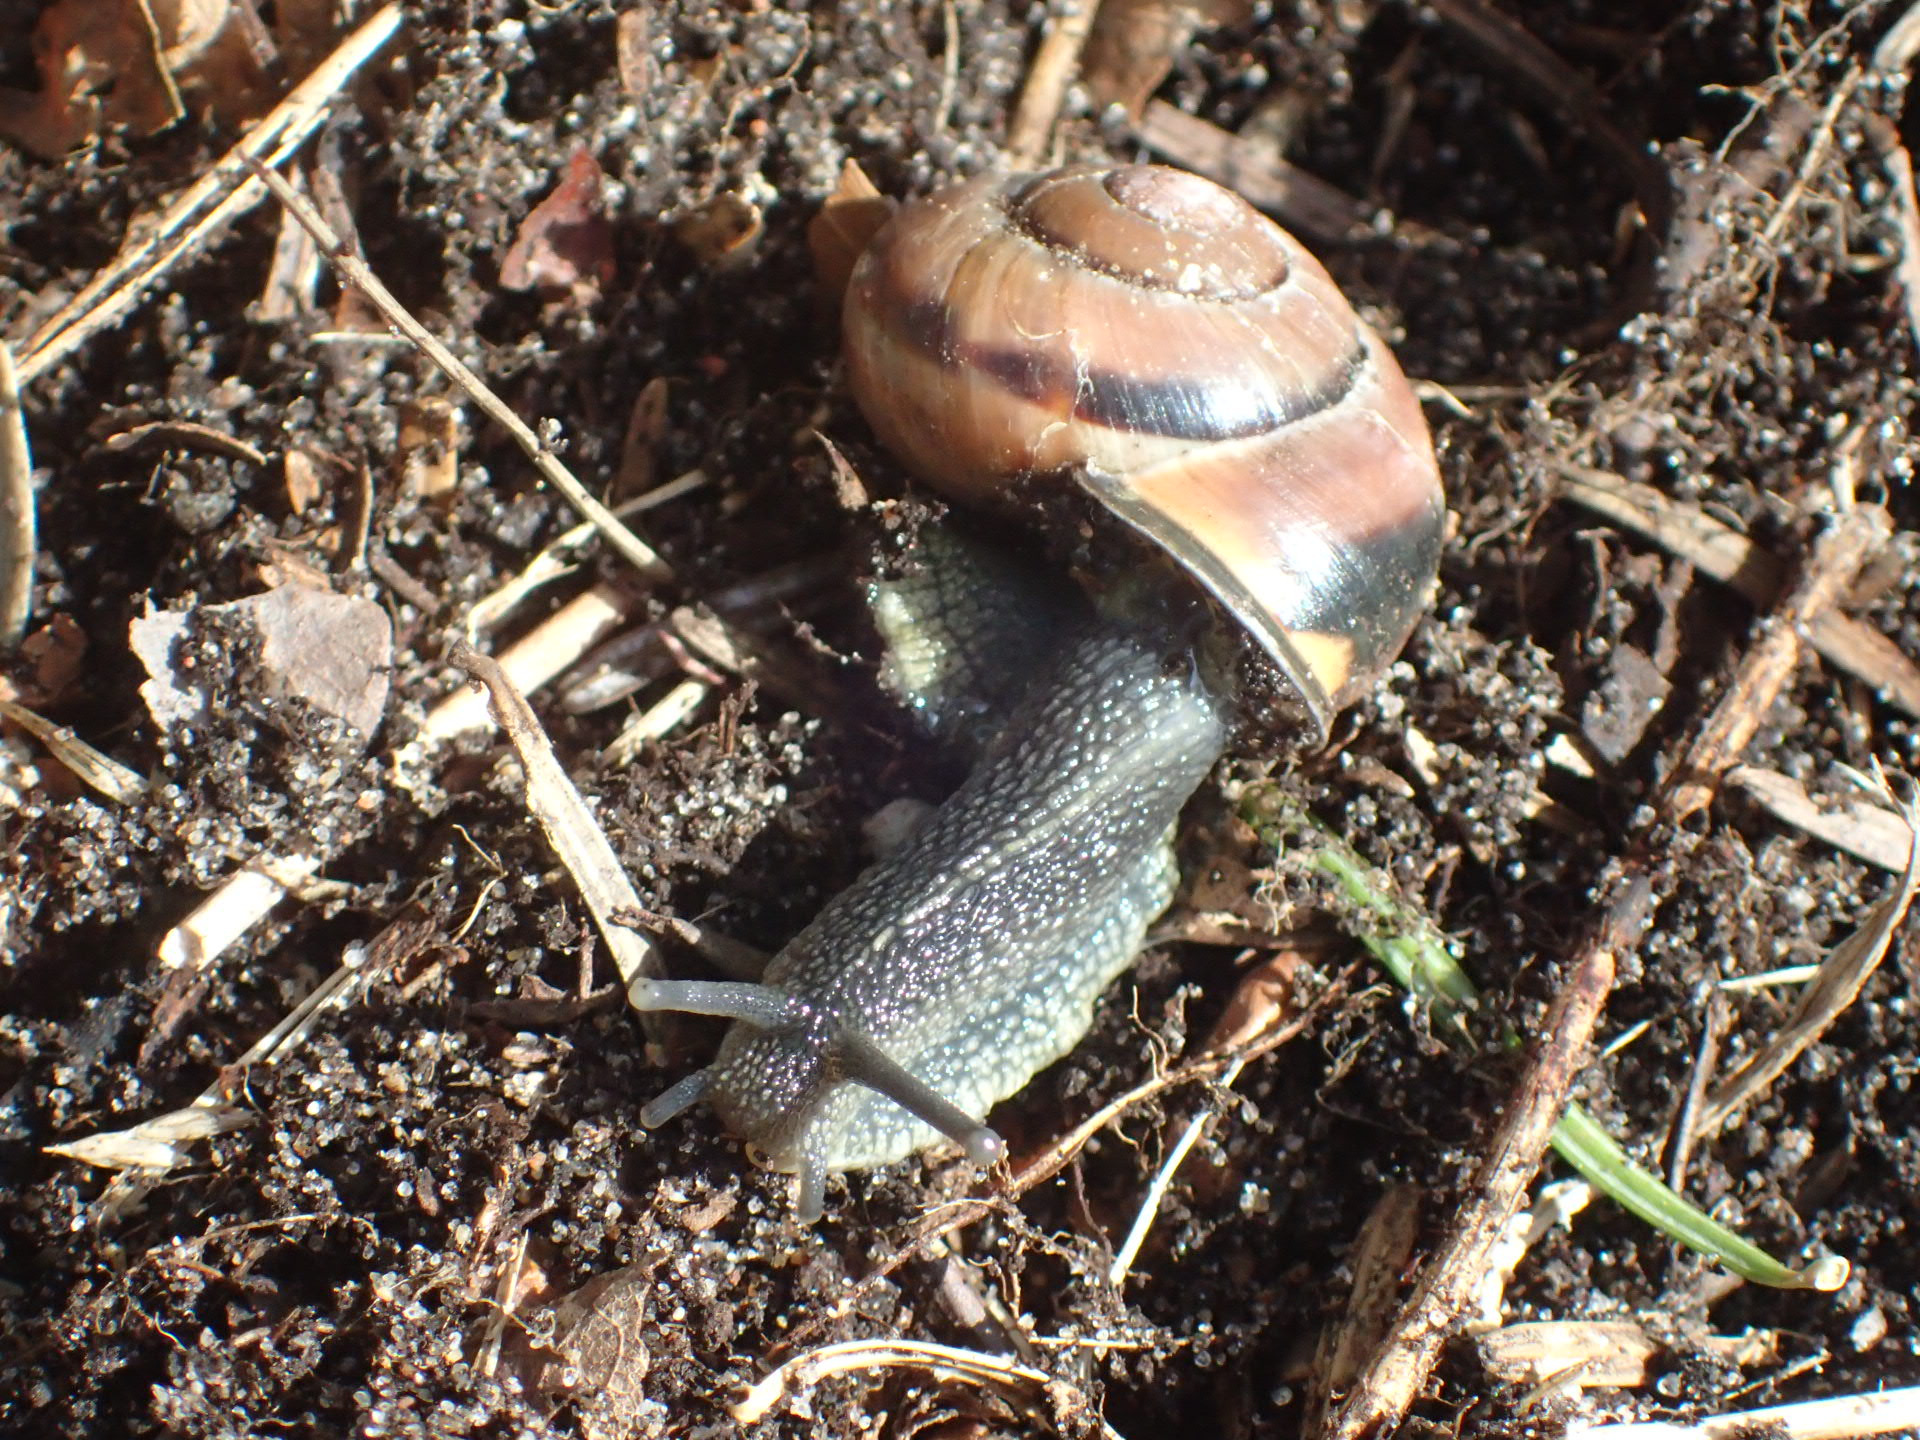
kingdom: Animalia
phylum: Mollusca
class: Gastropoda
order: Stylommatophora
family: Helicidae
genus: Cepaea
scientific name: Cepaea nemoralis
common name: Lundsnegl
